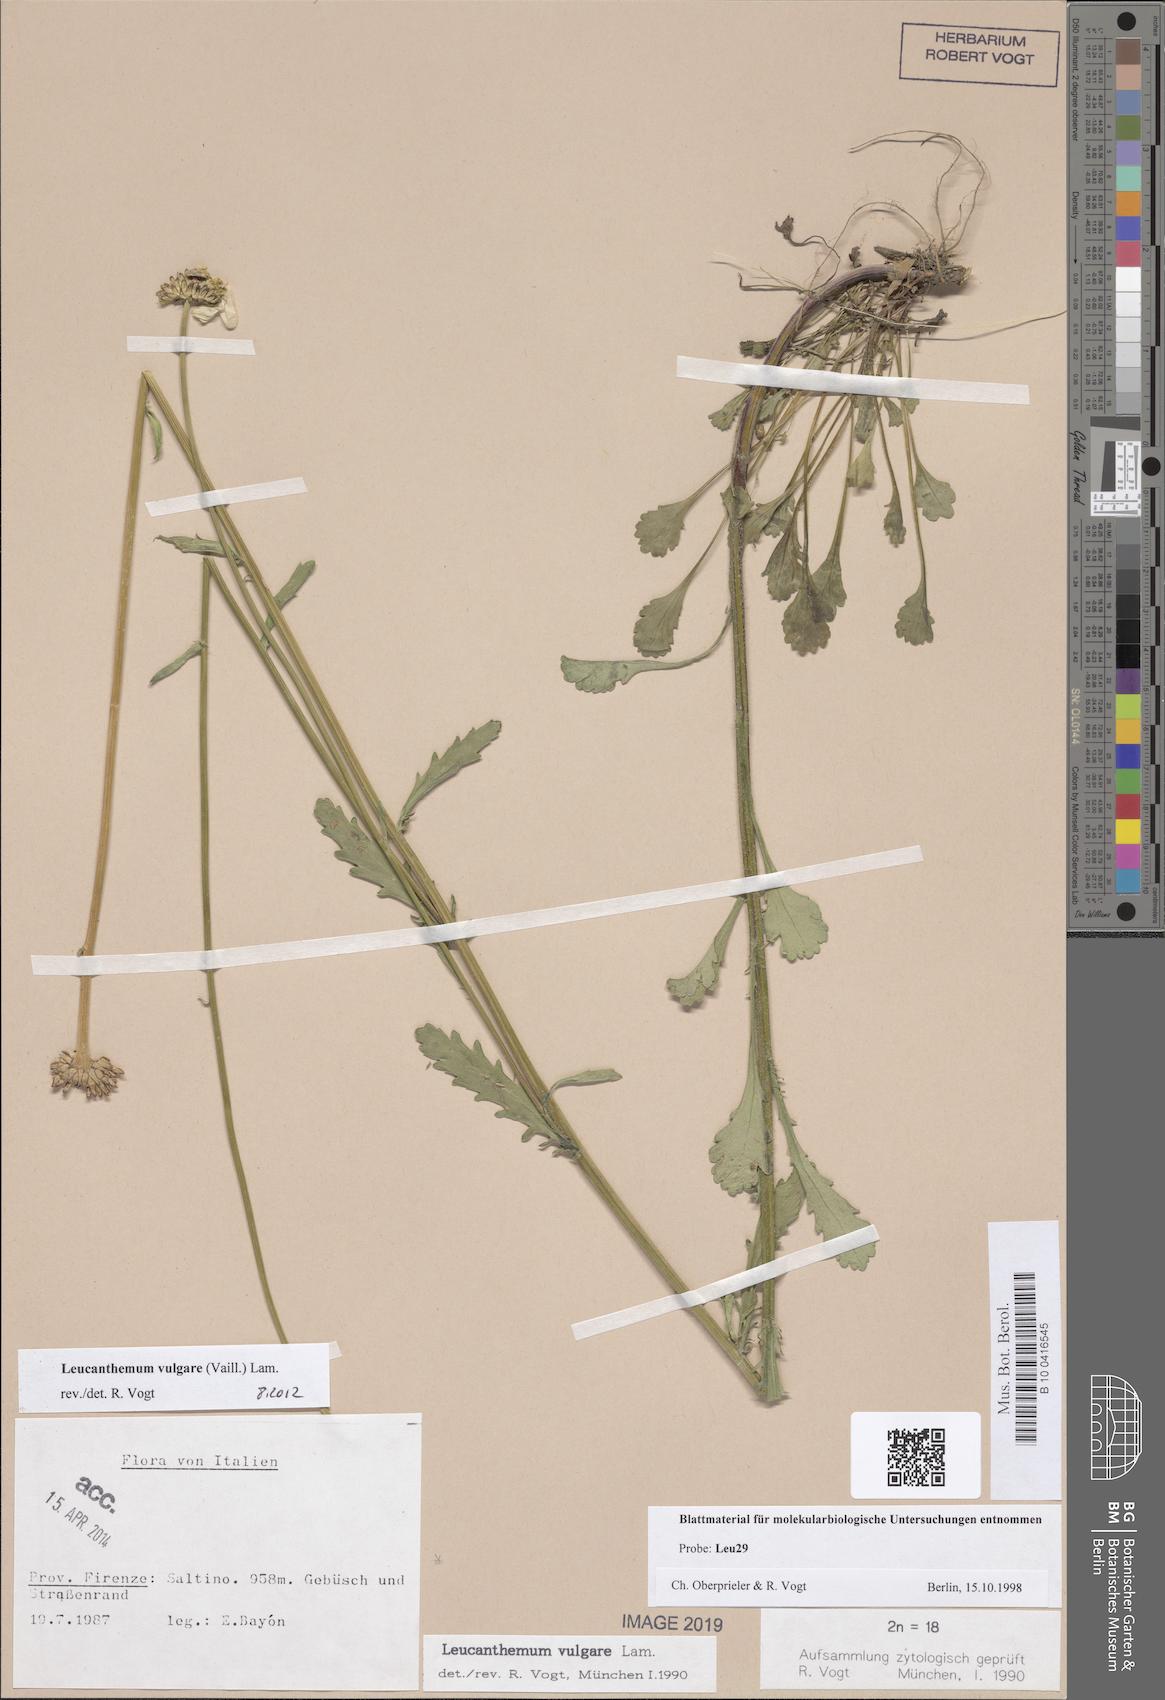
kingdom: Plantae
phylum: Tracheophyta
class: Magnoliopsida
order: Asterales
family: Asteraceae
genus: Leucanthemum
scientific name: Leucanthemum vulgare
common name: Oxeye daisy
